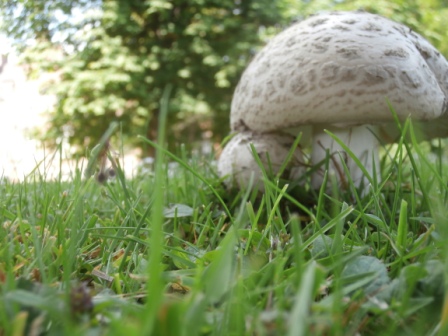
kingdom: Fungi
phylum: Basidiomycota
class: Agaricomycetes
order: Agaricales
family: Amanitaceae
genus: Amanita
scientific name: Amanita
